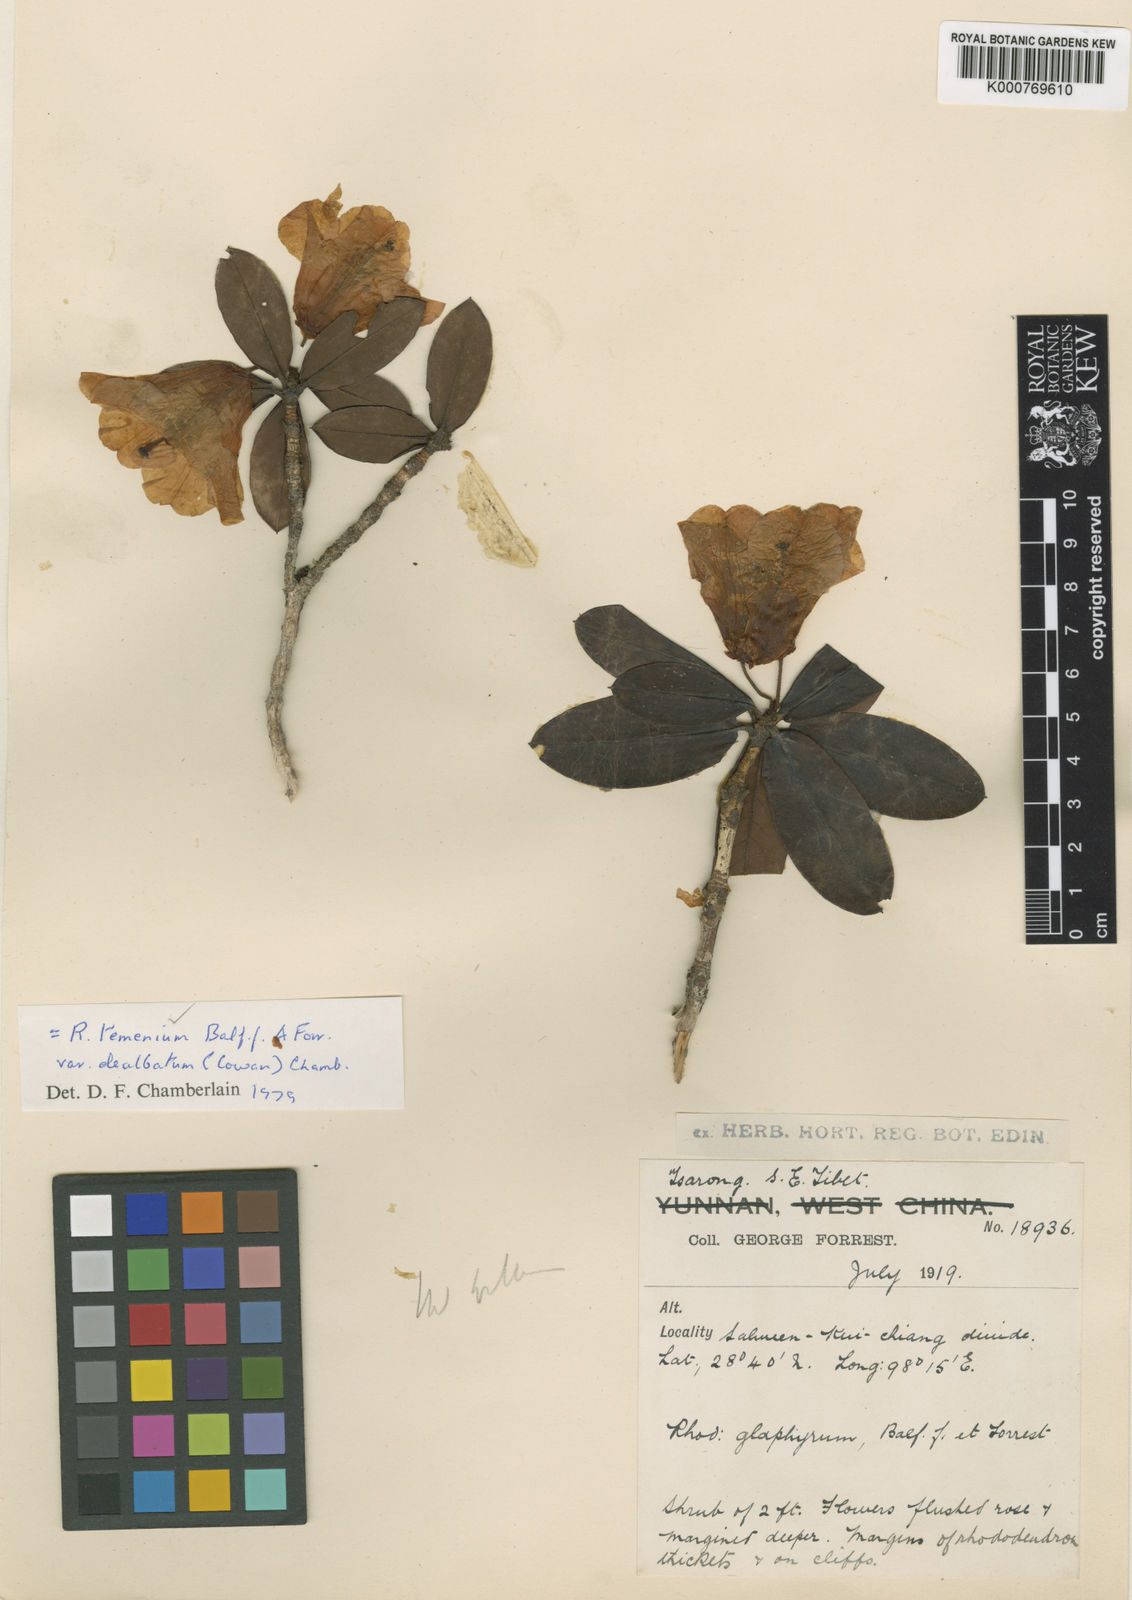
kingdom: Plantae
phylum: Tracheophyta
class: Magnoliopsida
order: Ericales
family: Ericaceae
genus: Rhododendron
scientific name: Rhododendron temenium
